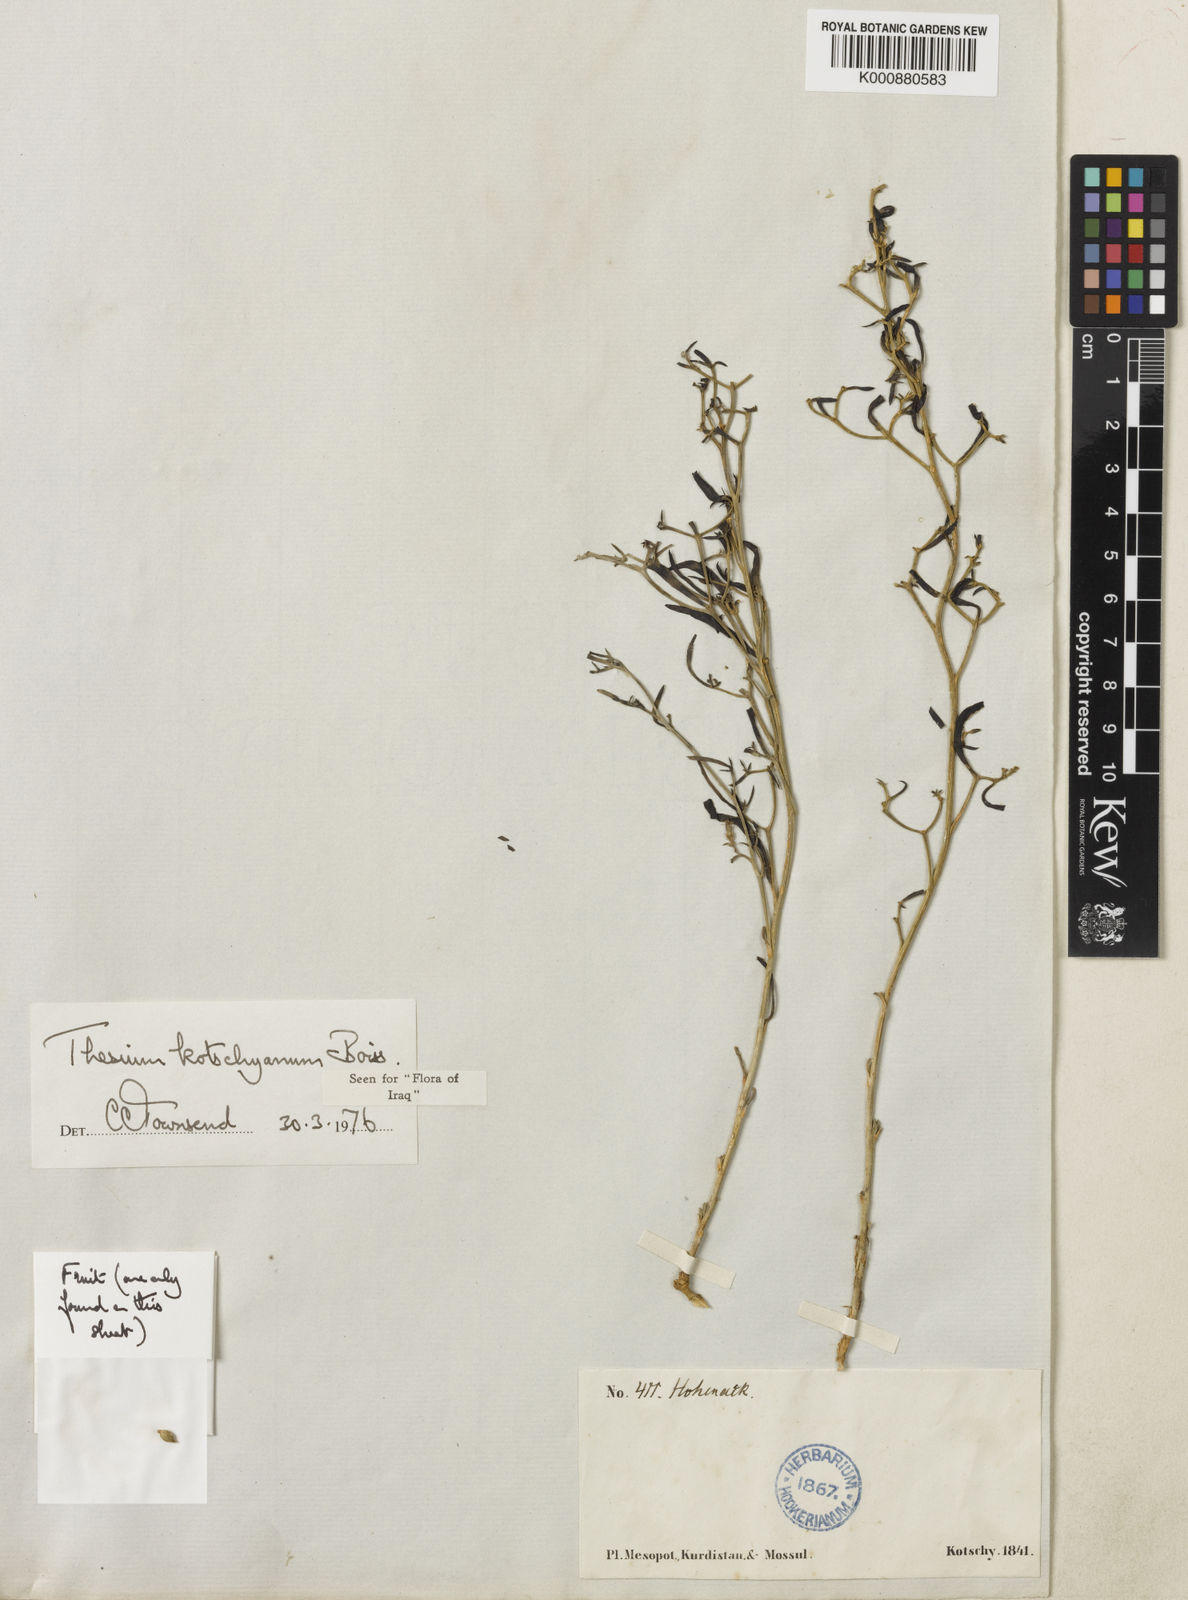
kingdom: Plantae
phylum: Tracheophyta
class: Magnoliopsida
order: Santalales
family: Thesiaceae
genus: Thesium
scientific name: Thesium kotschyanum
